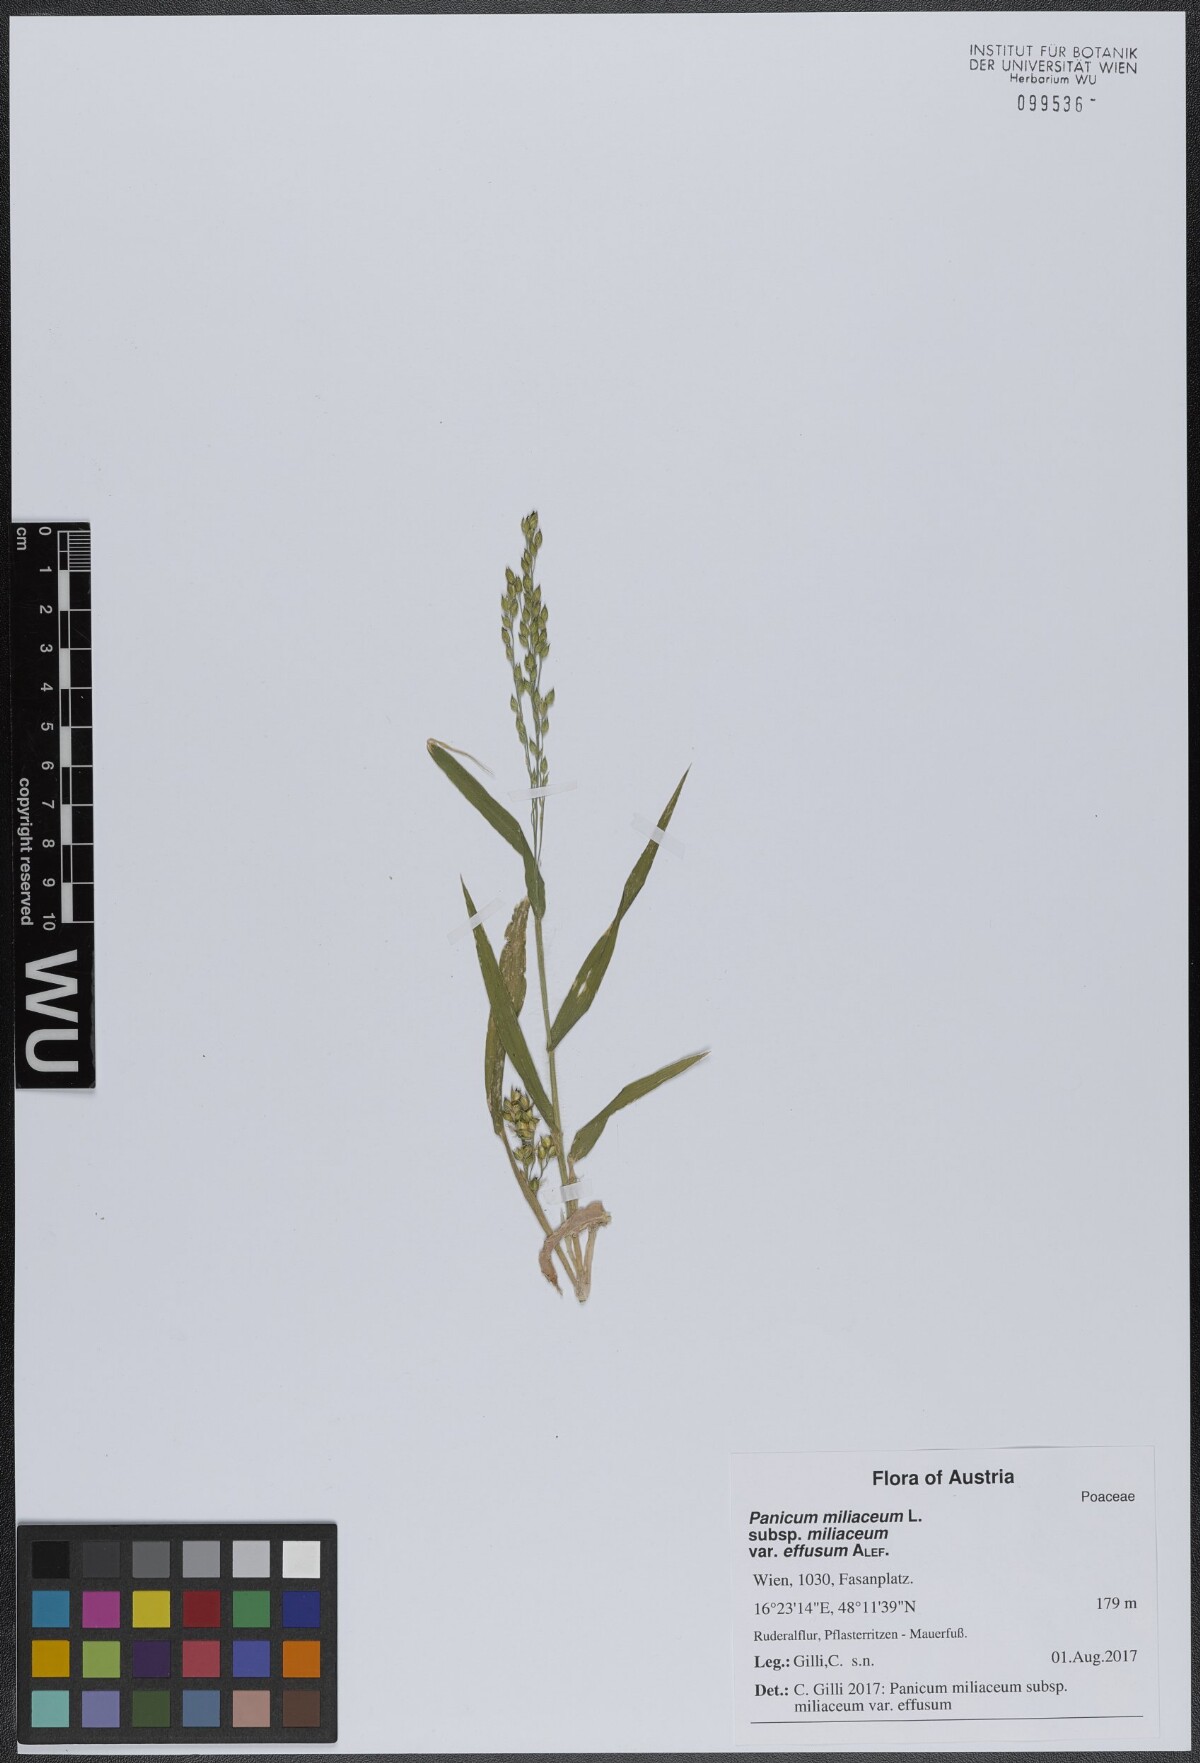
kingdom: Plantae
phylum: Tracheophyta
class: Liliopsida
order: Poales
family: Poaceae
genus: Panicum
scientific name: Panicum miliaceum
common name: Common millet
